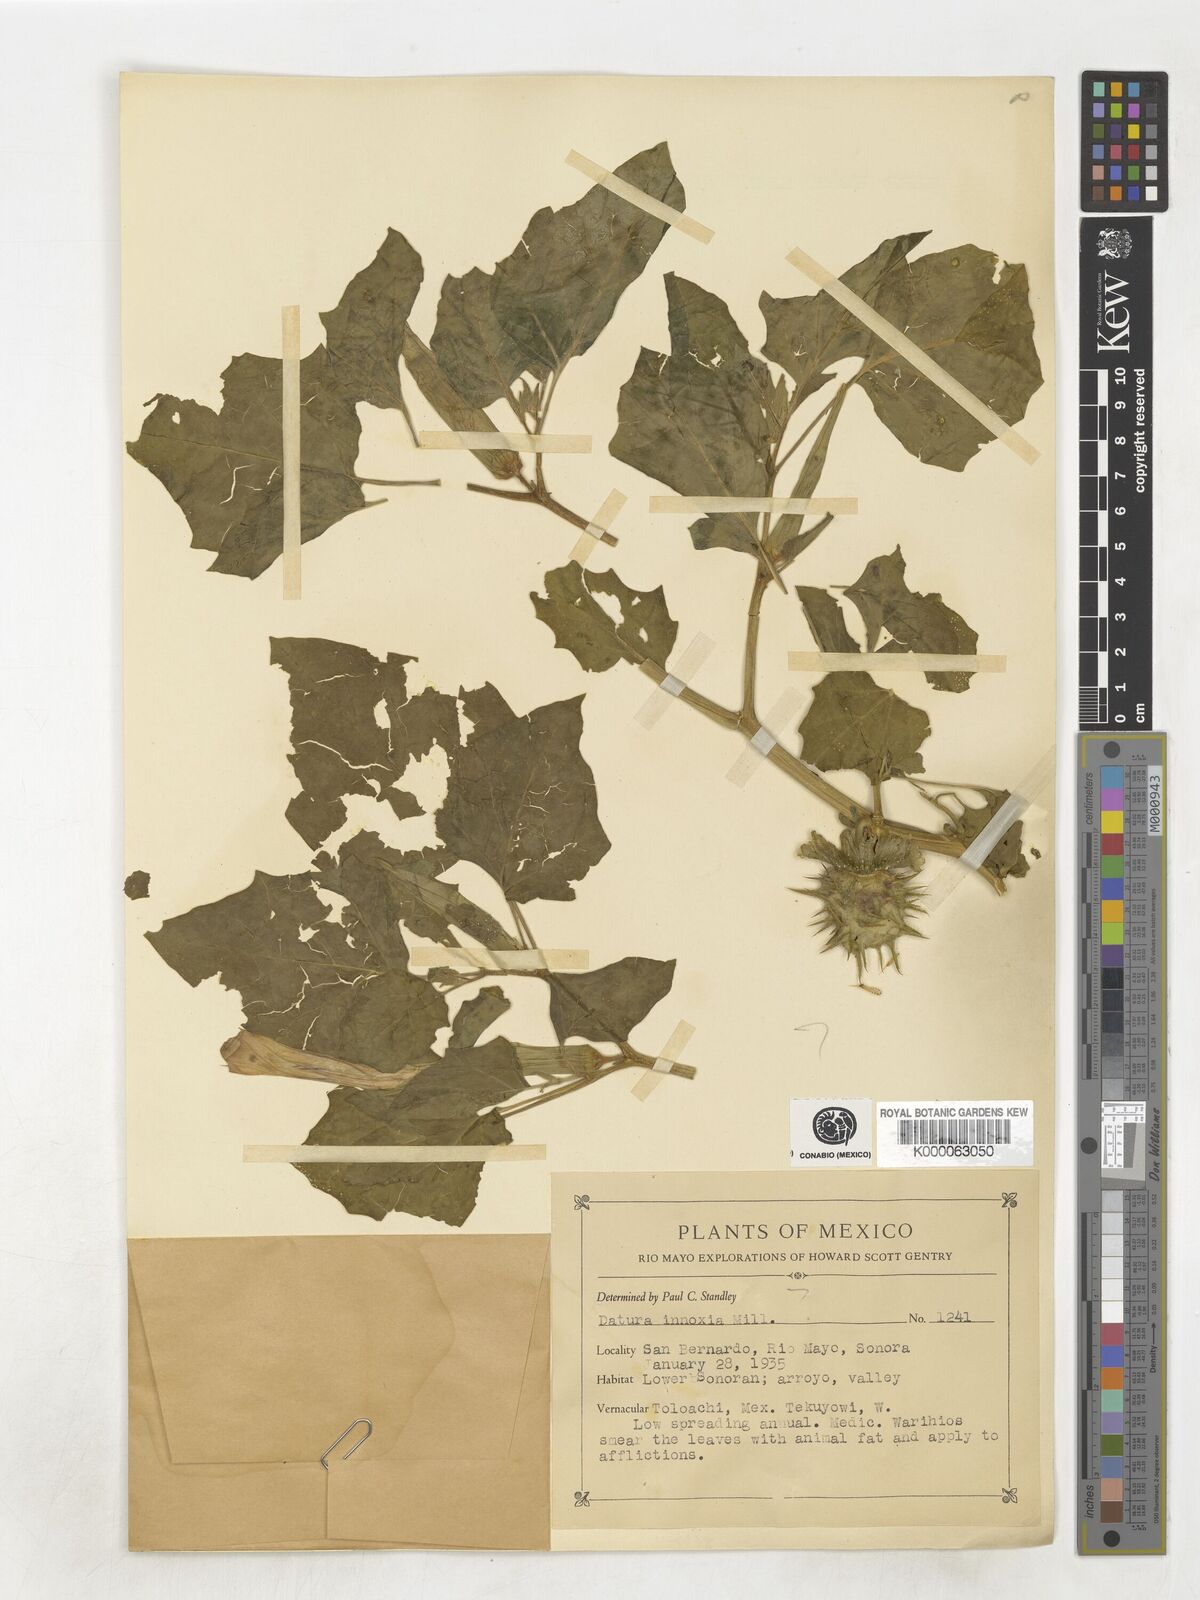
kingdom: Plantae
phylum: Tracheophyta
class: Magnoliopsida
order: Solanales
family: Solanaceae
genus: Datura
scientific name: Datura discolor
